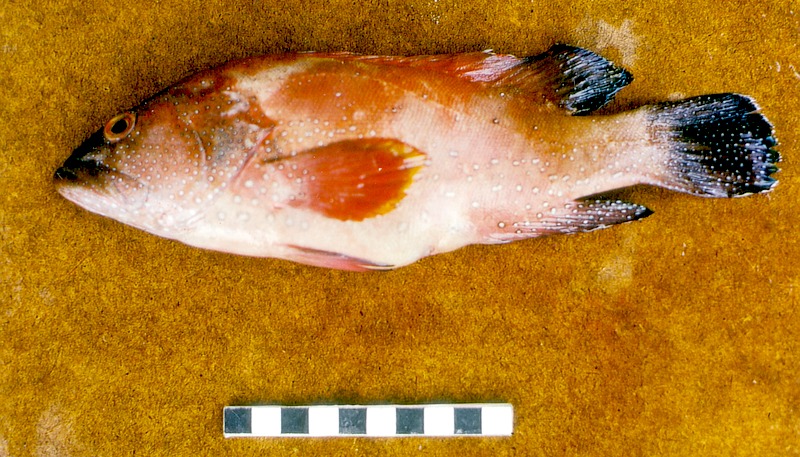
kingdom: Animalia
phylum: Chordata
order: Perciformes
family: Serranidae
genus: Cephalopholis
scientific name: Cephalopholis hemistiktos
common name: Halfspotted hind
